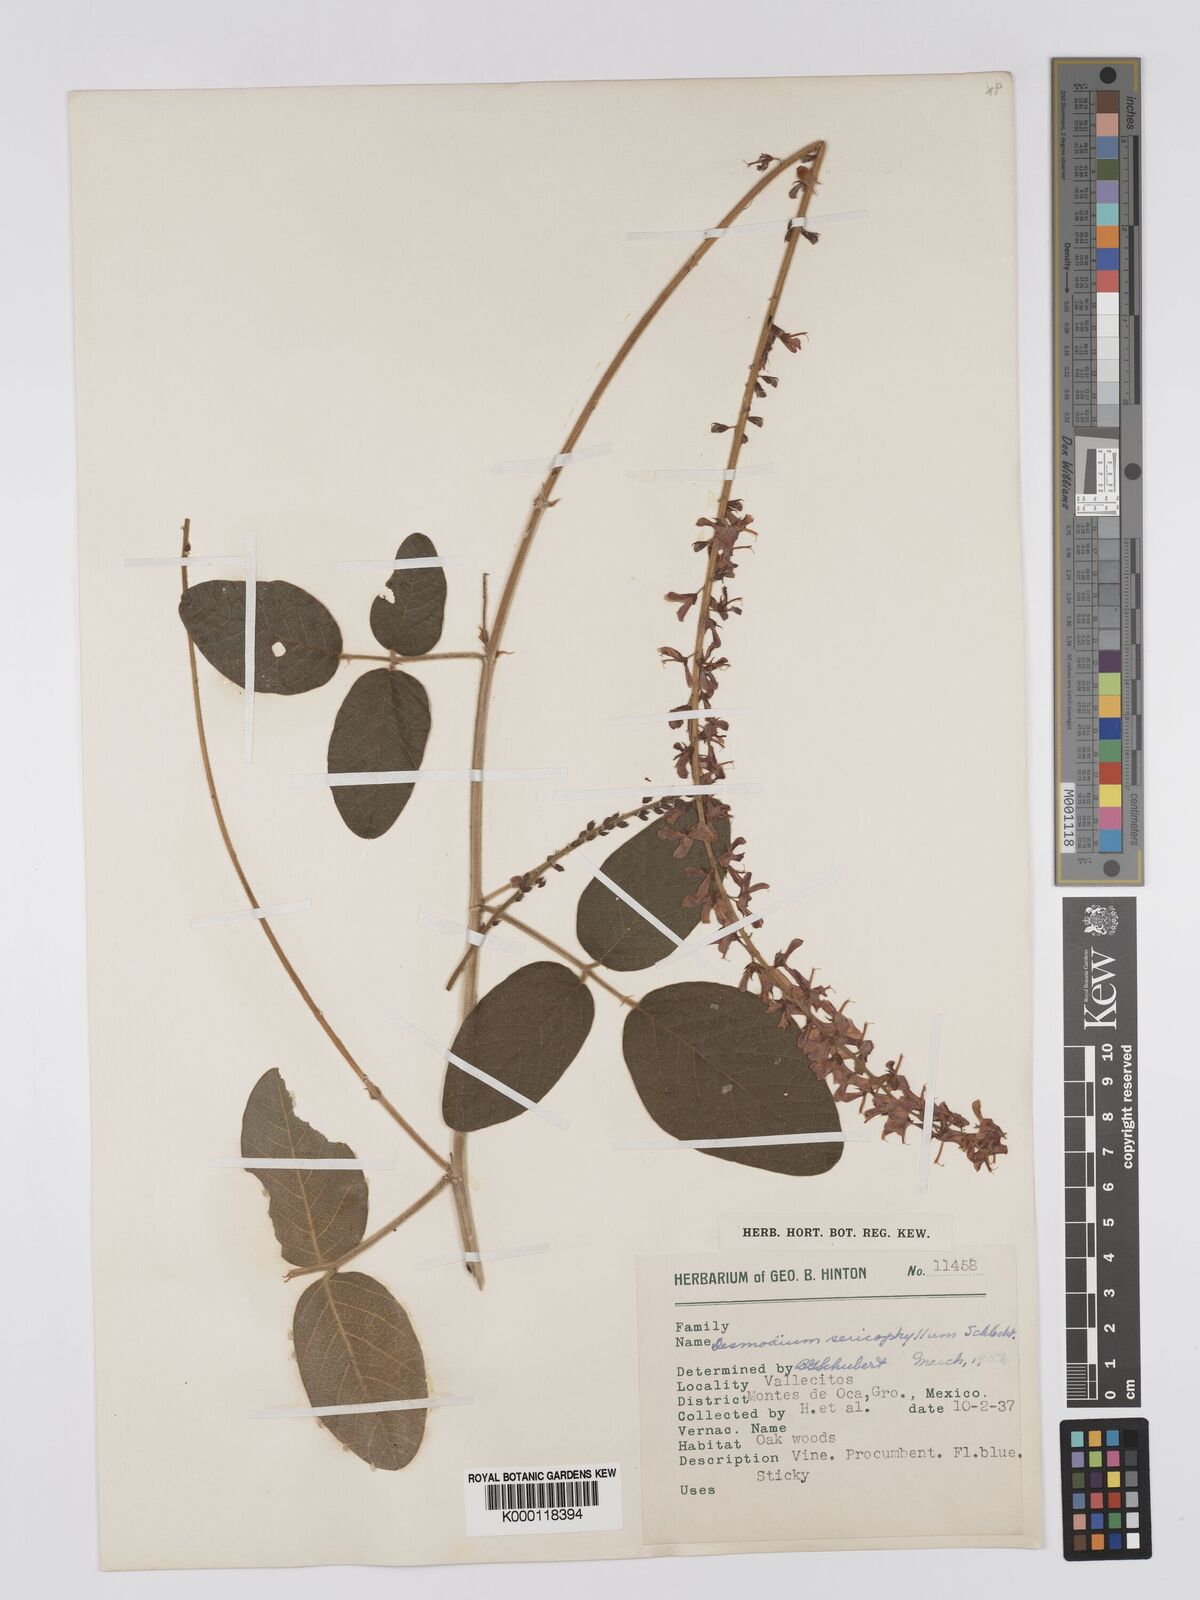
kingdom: Plantae
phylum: Tracheophyta
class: Magnoliopsida
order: Fabales
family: Fabaceae
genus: Desmodium
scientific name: Desmodium sericophyllum
